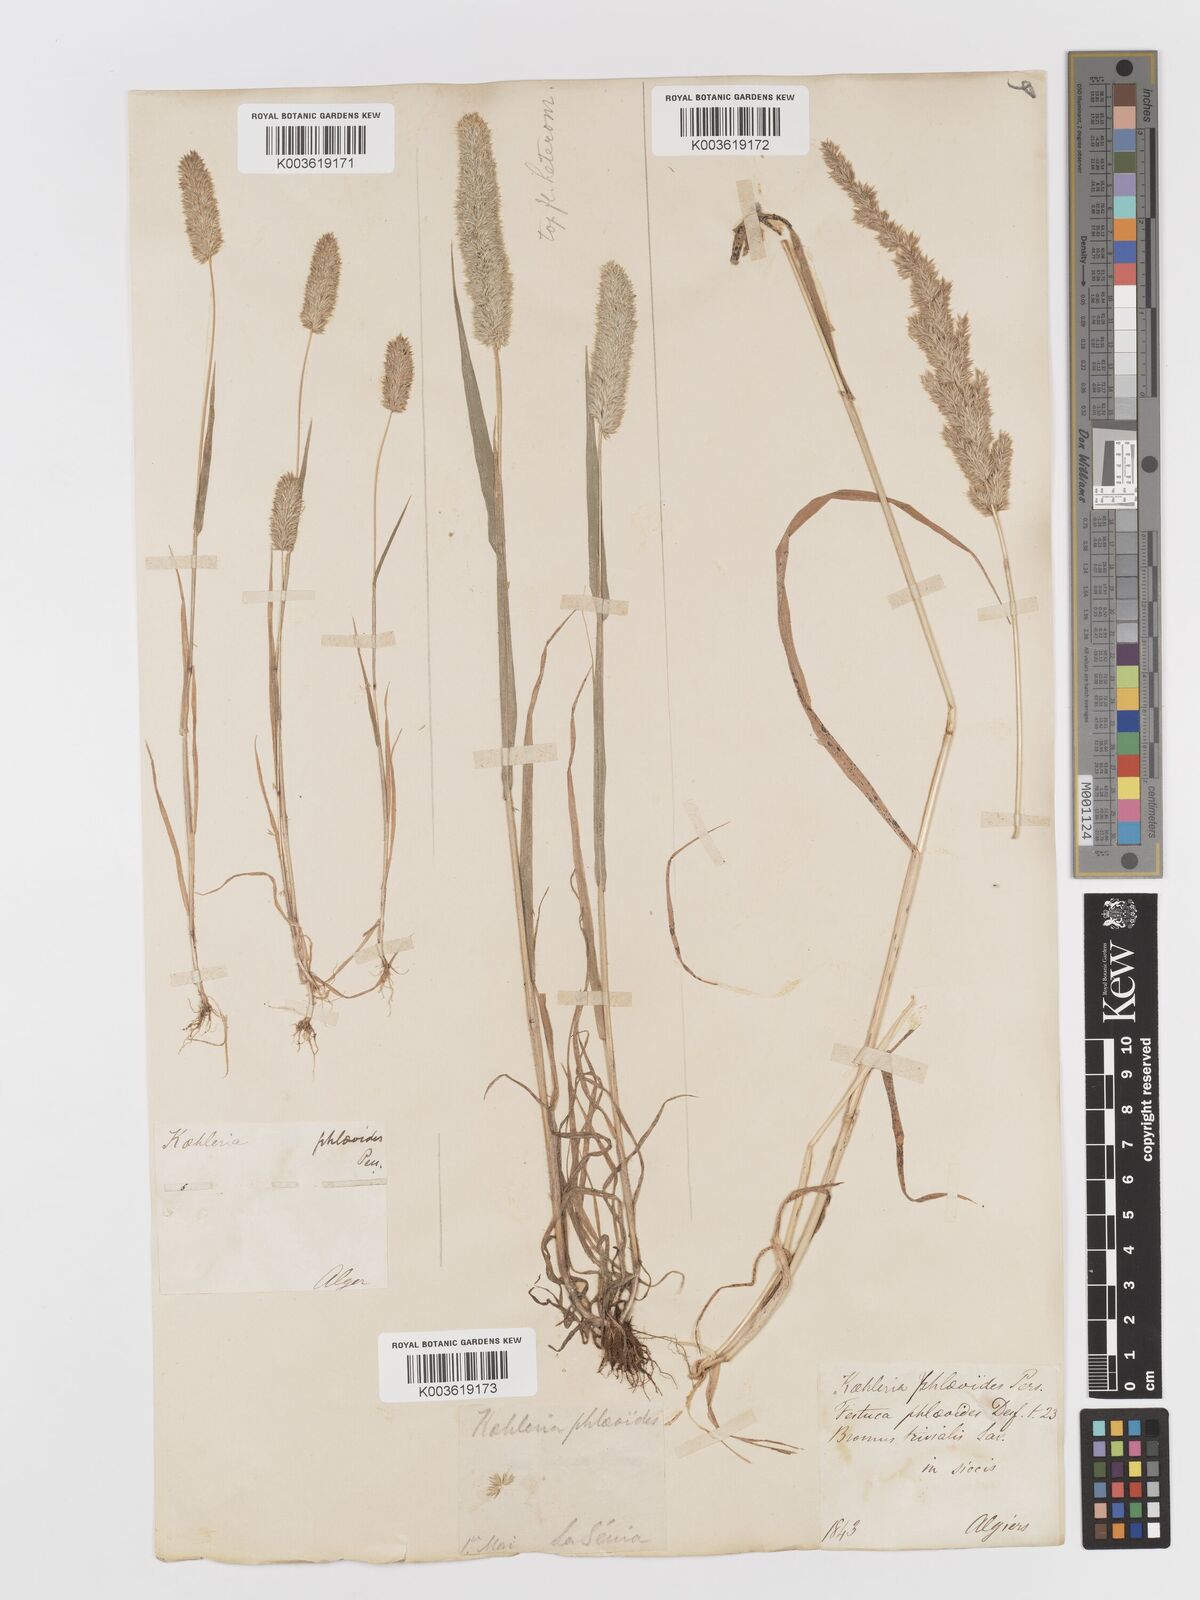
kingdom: Plantae
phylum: Tracheophyta
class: Liliopsida
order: Poales
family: Poaceae
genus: Rostraria
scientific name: Rostraria cristata
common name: Mediterranean hair-grass
